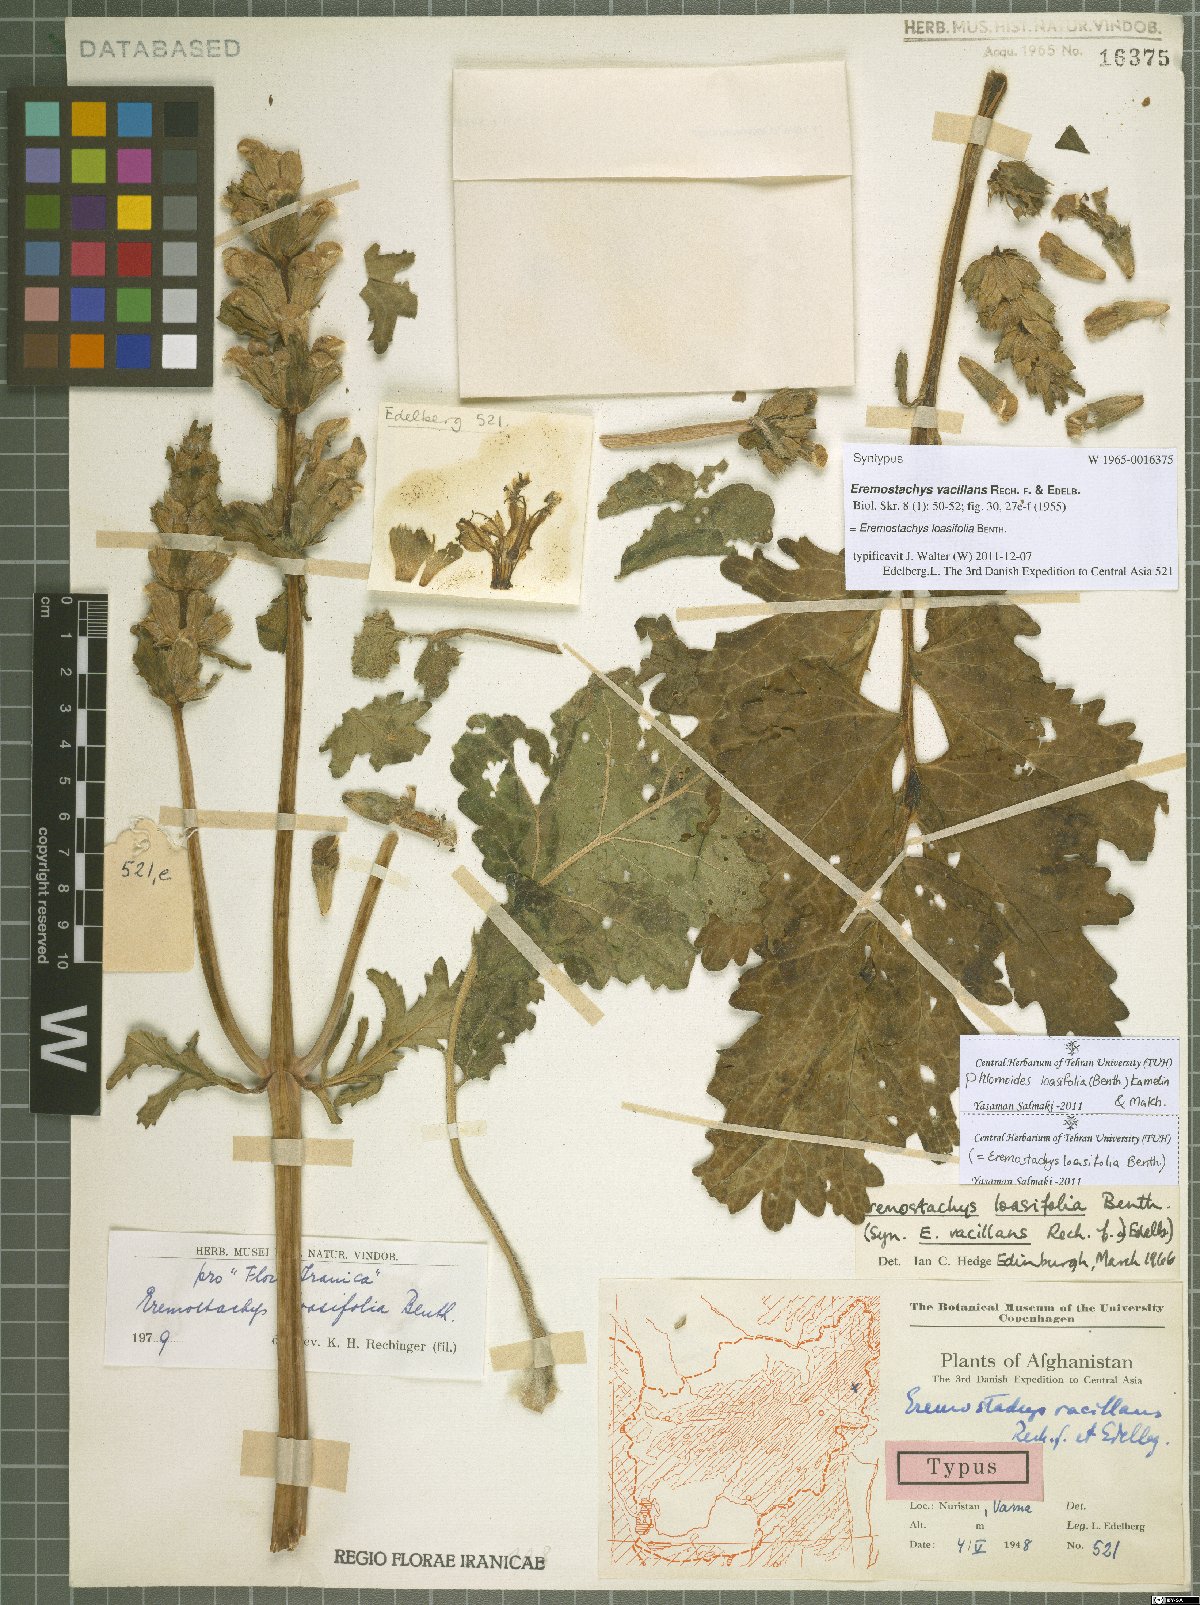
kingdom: Plantae
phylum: Tracheophyta
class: Magnoliopsida
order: Lamiales
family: Lamiaceae
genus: Phlomoides
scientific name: Phlomoides loasifolia
